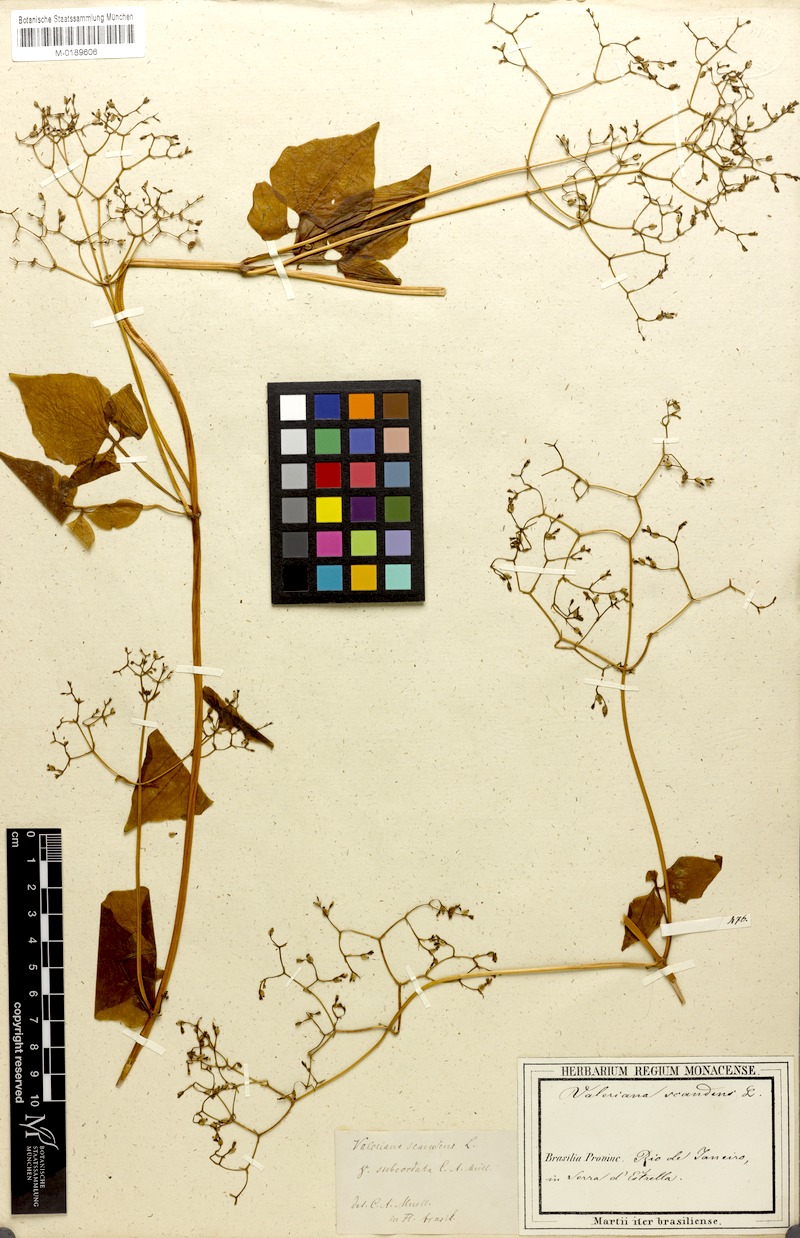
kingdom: Plantae
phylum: Tracheophyta
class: Magnoliopsida
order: Dipsacales
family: Caprifoliaceae
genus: Valeriana
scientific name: Valeriana scandens
